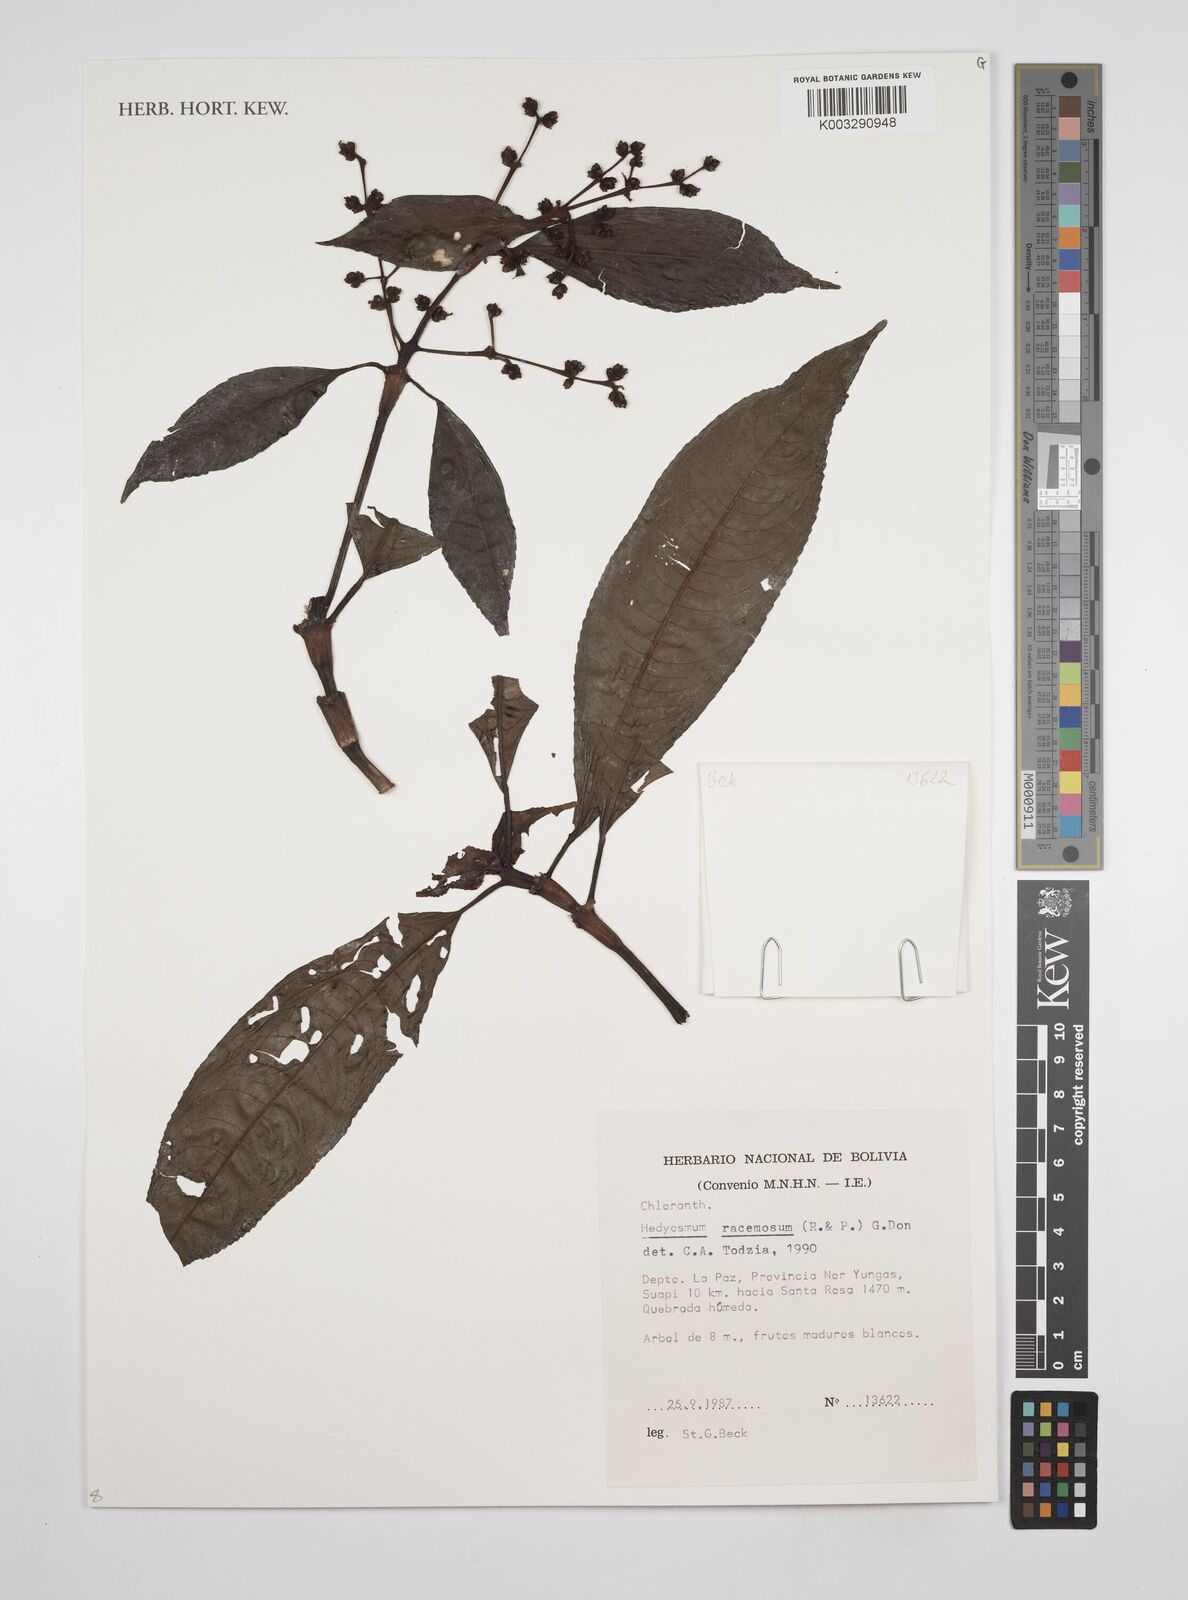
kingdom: Plantae
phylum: Tracheophyta
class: Magnoliopsida
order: Chloranthales
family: Chloranthaceae
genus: Hedyosmum
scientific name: Hedyosmum racemosum
